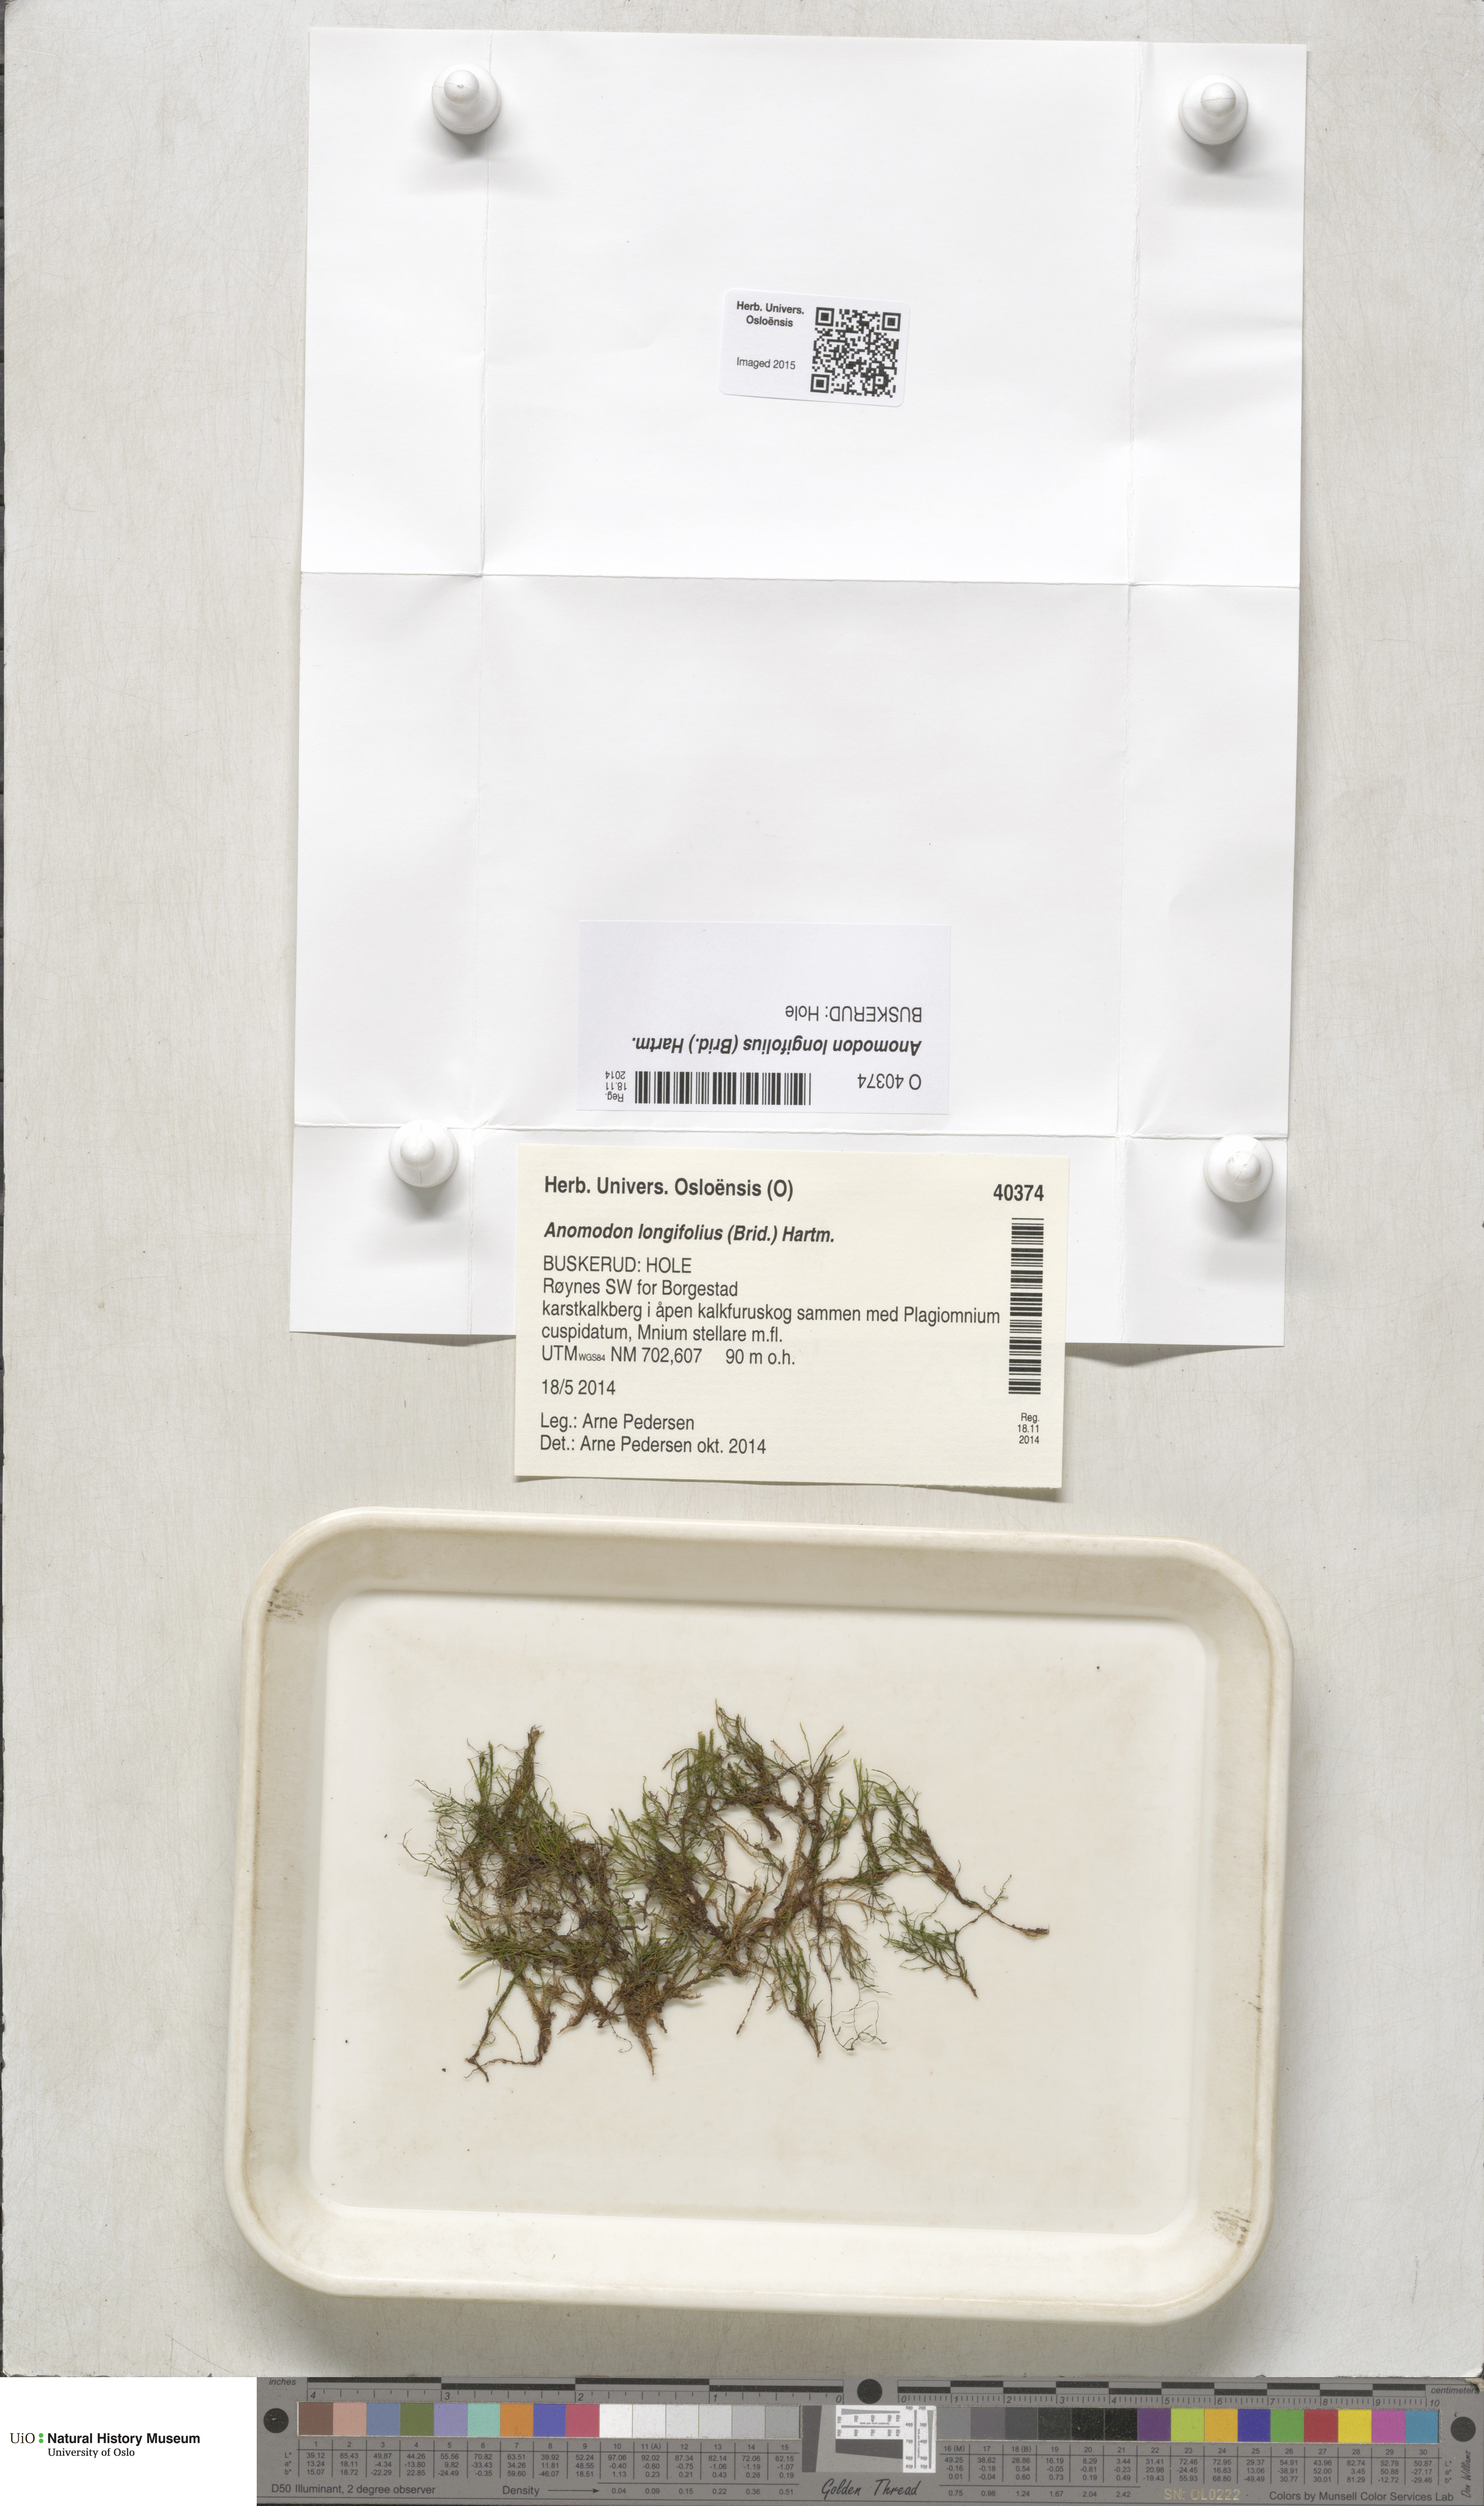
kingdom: Plantae
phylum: Bryophyta
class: Bryopsida
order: Hypnales
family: Anomodontaceae
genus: Anomodontella
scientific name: Anomodontella longifolia
